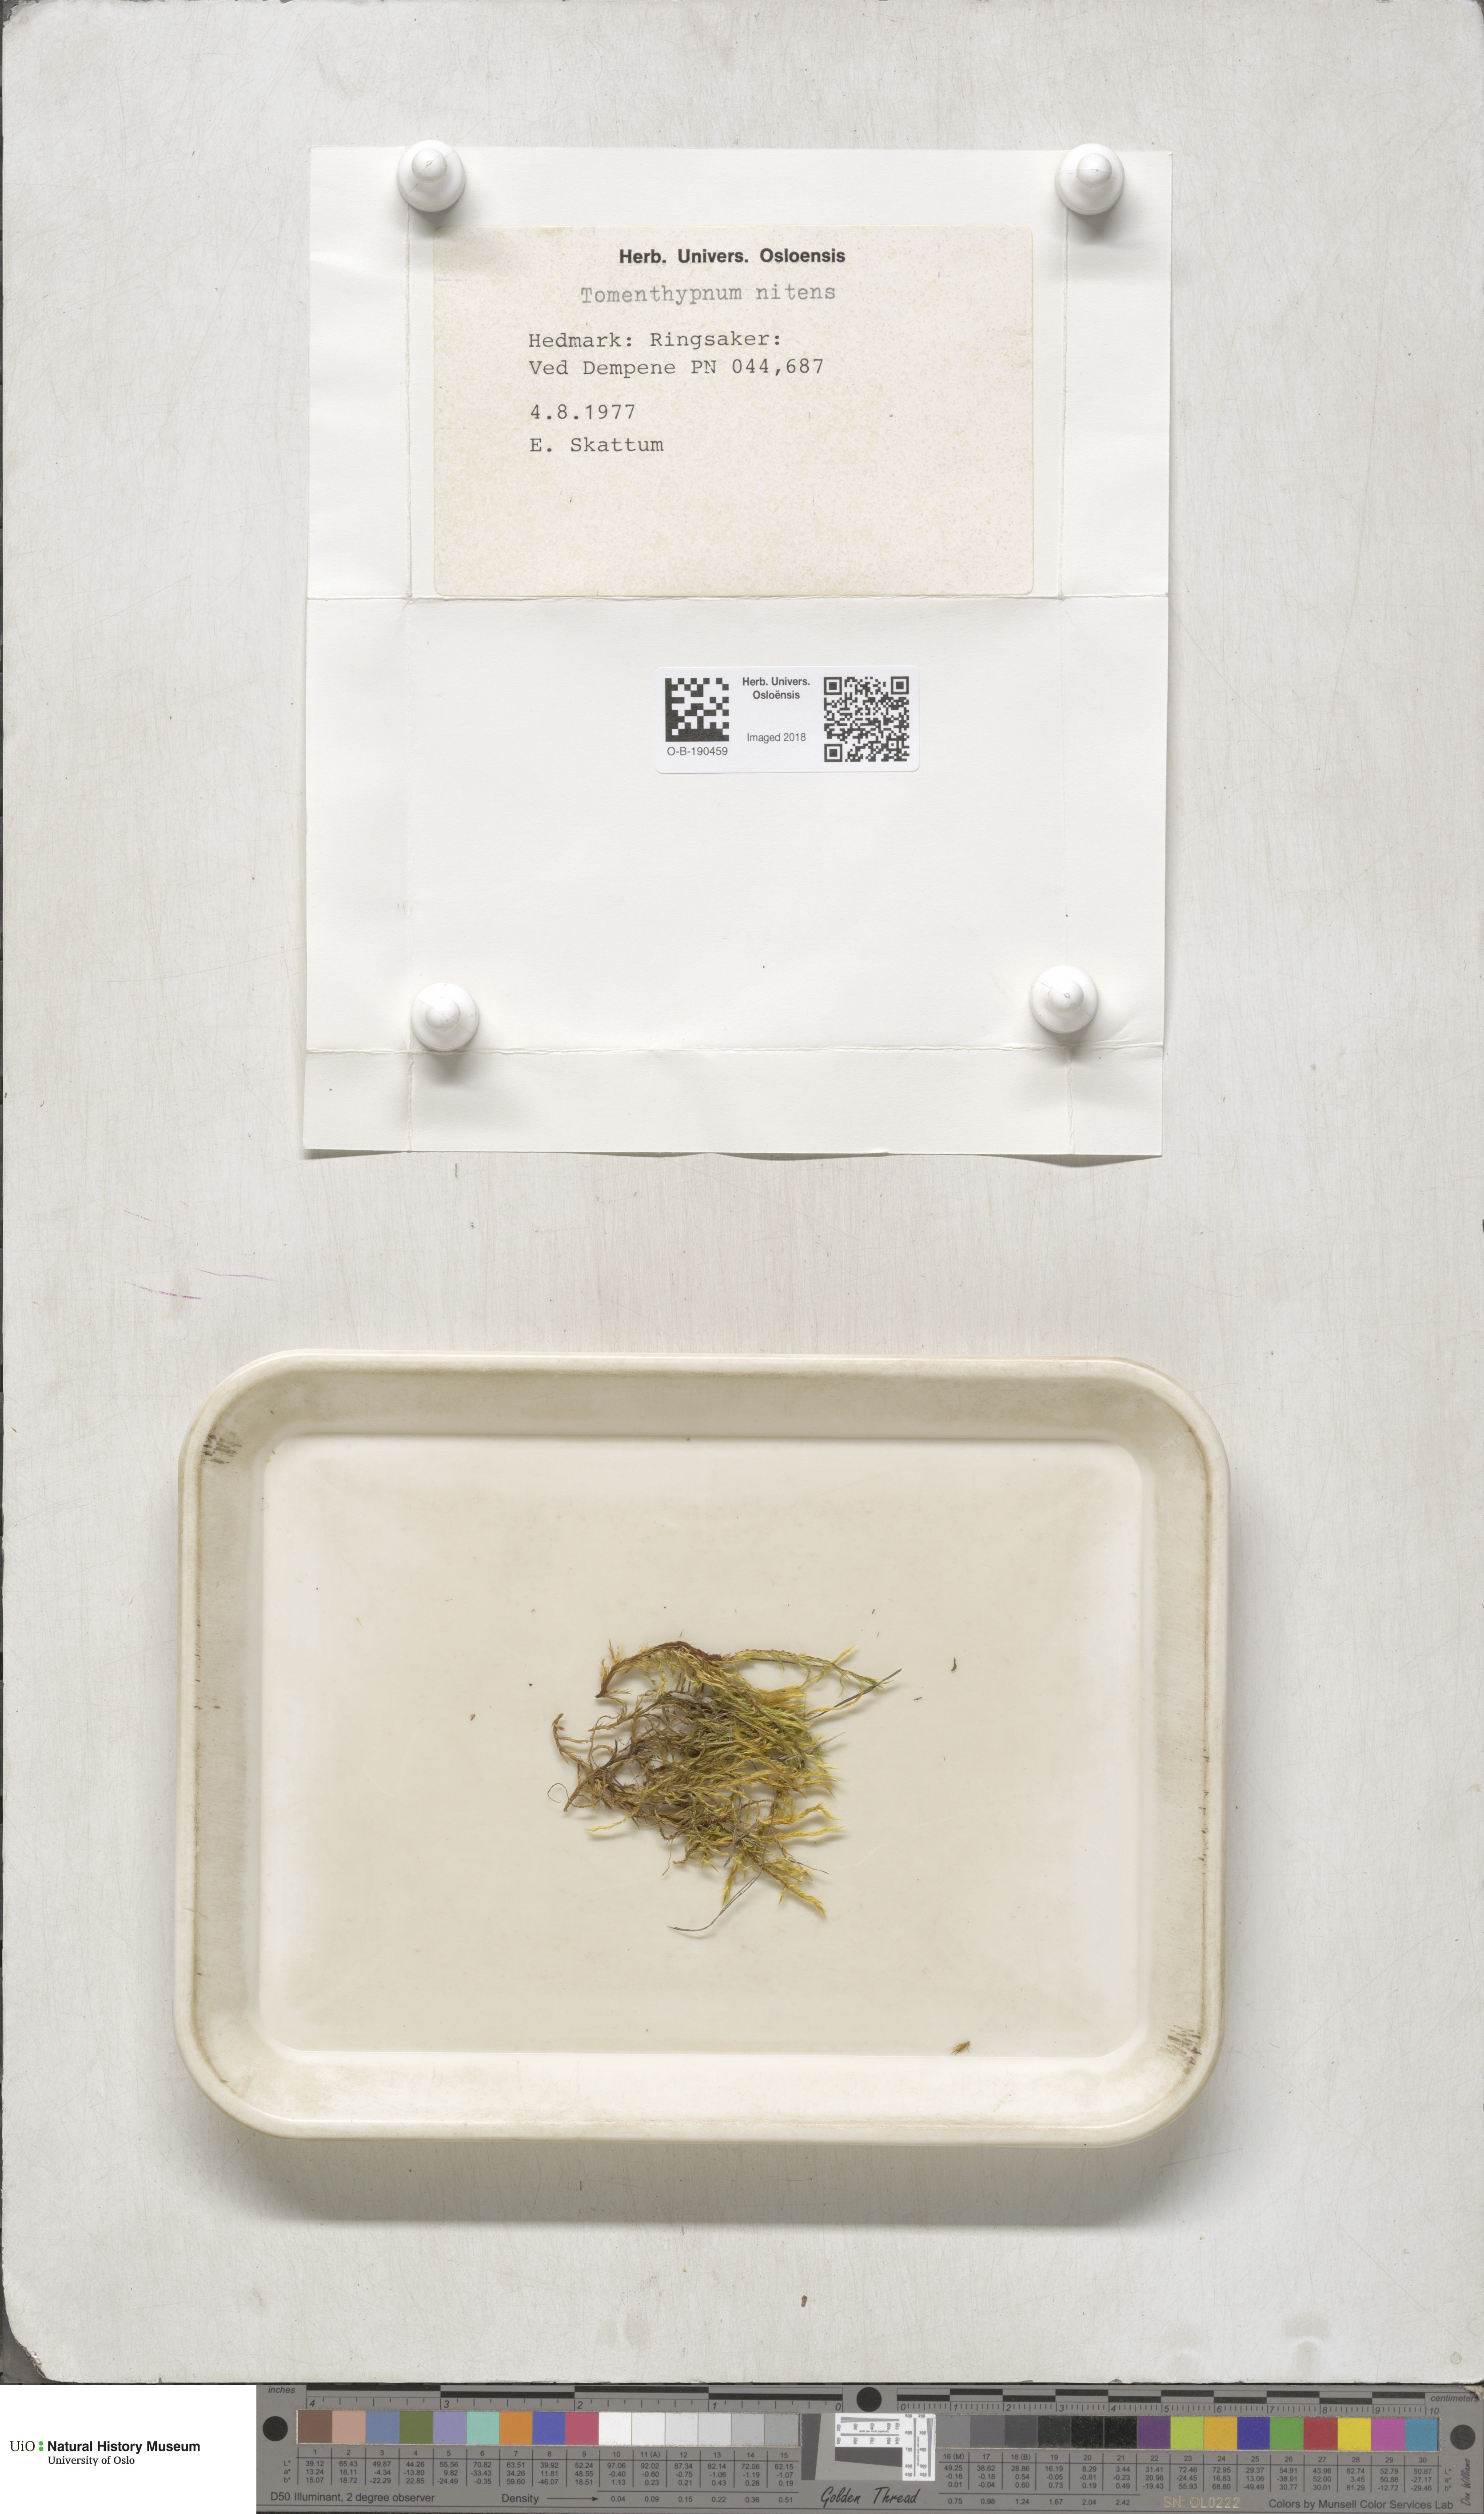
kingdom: Plantae
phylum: Bryophyta
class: Bryopsida
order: Hypnales
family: Amblystegiaceae
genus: Tomentypnum
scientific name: Tomentypnum nitens
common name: Golden fuzzy fen moss
